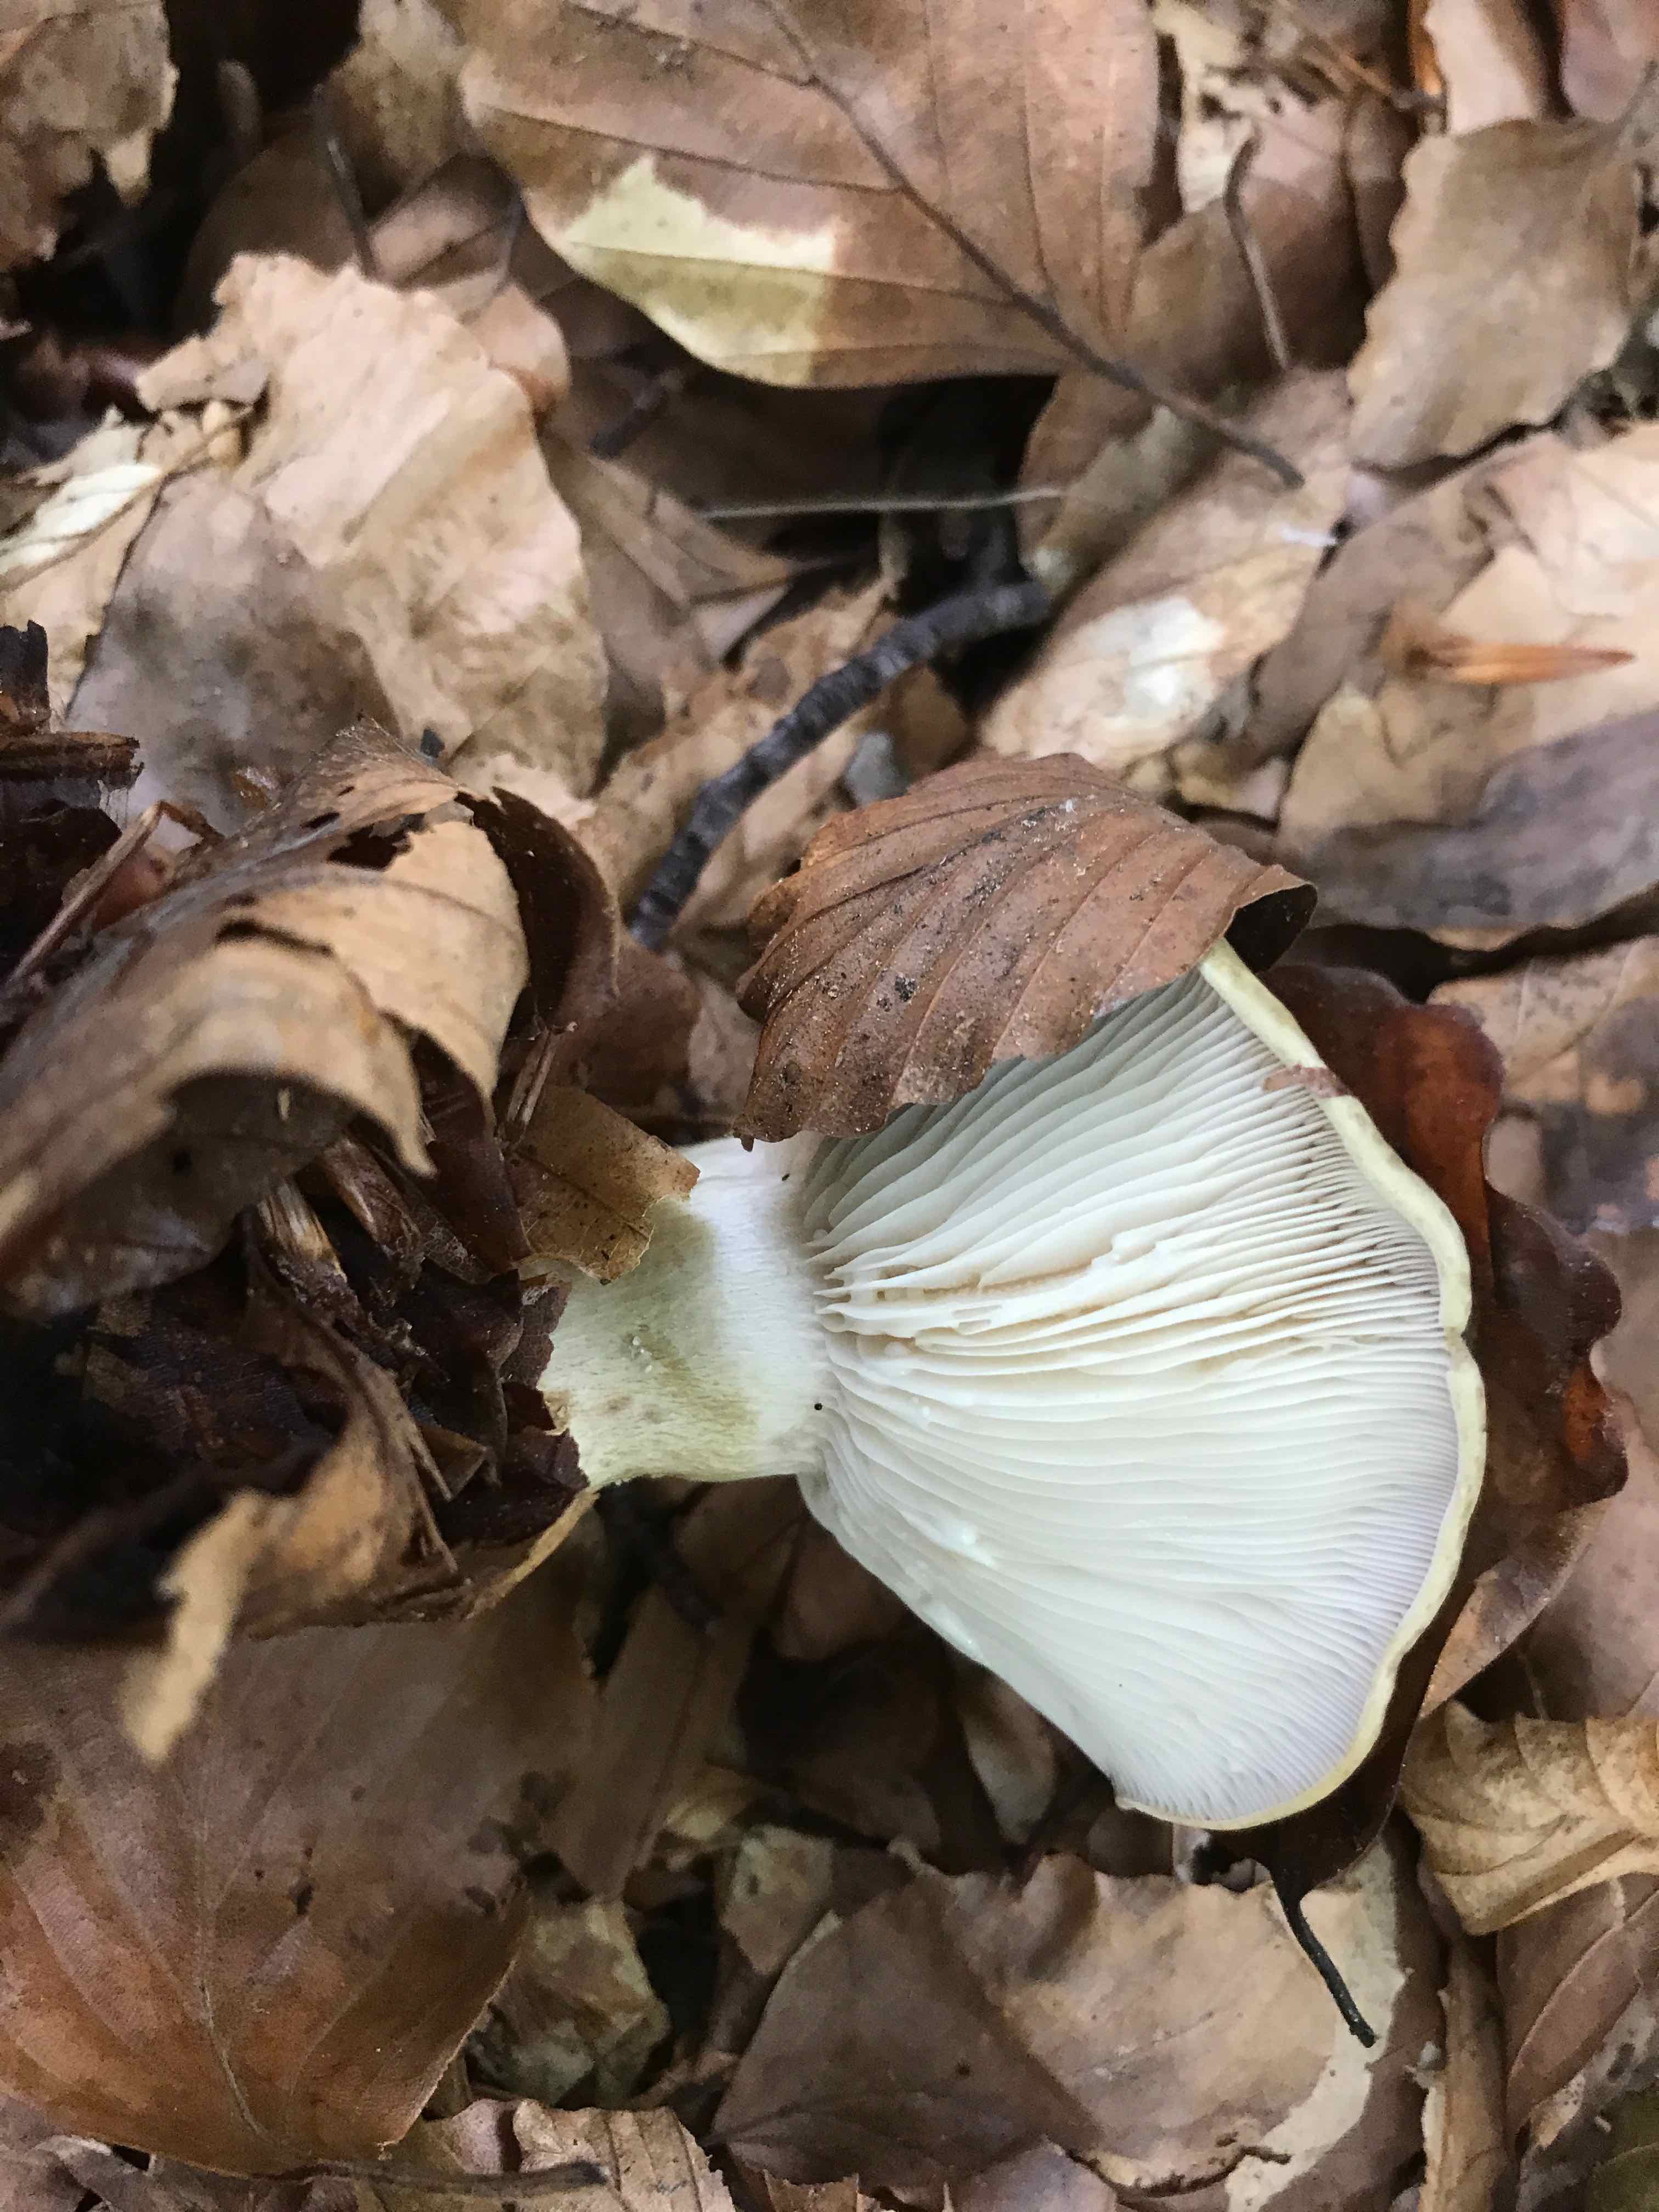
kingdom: Fungi
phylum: Basidiomycota
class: Agaricomycetes
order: Russulales
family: Russulaceae
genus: Lactarius
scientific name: Lactarius blennius
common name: dråbeplettet mælkehat
